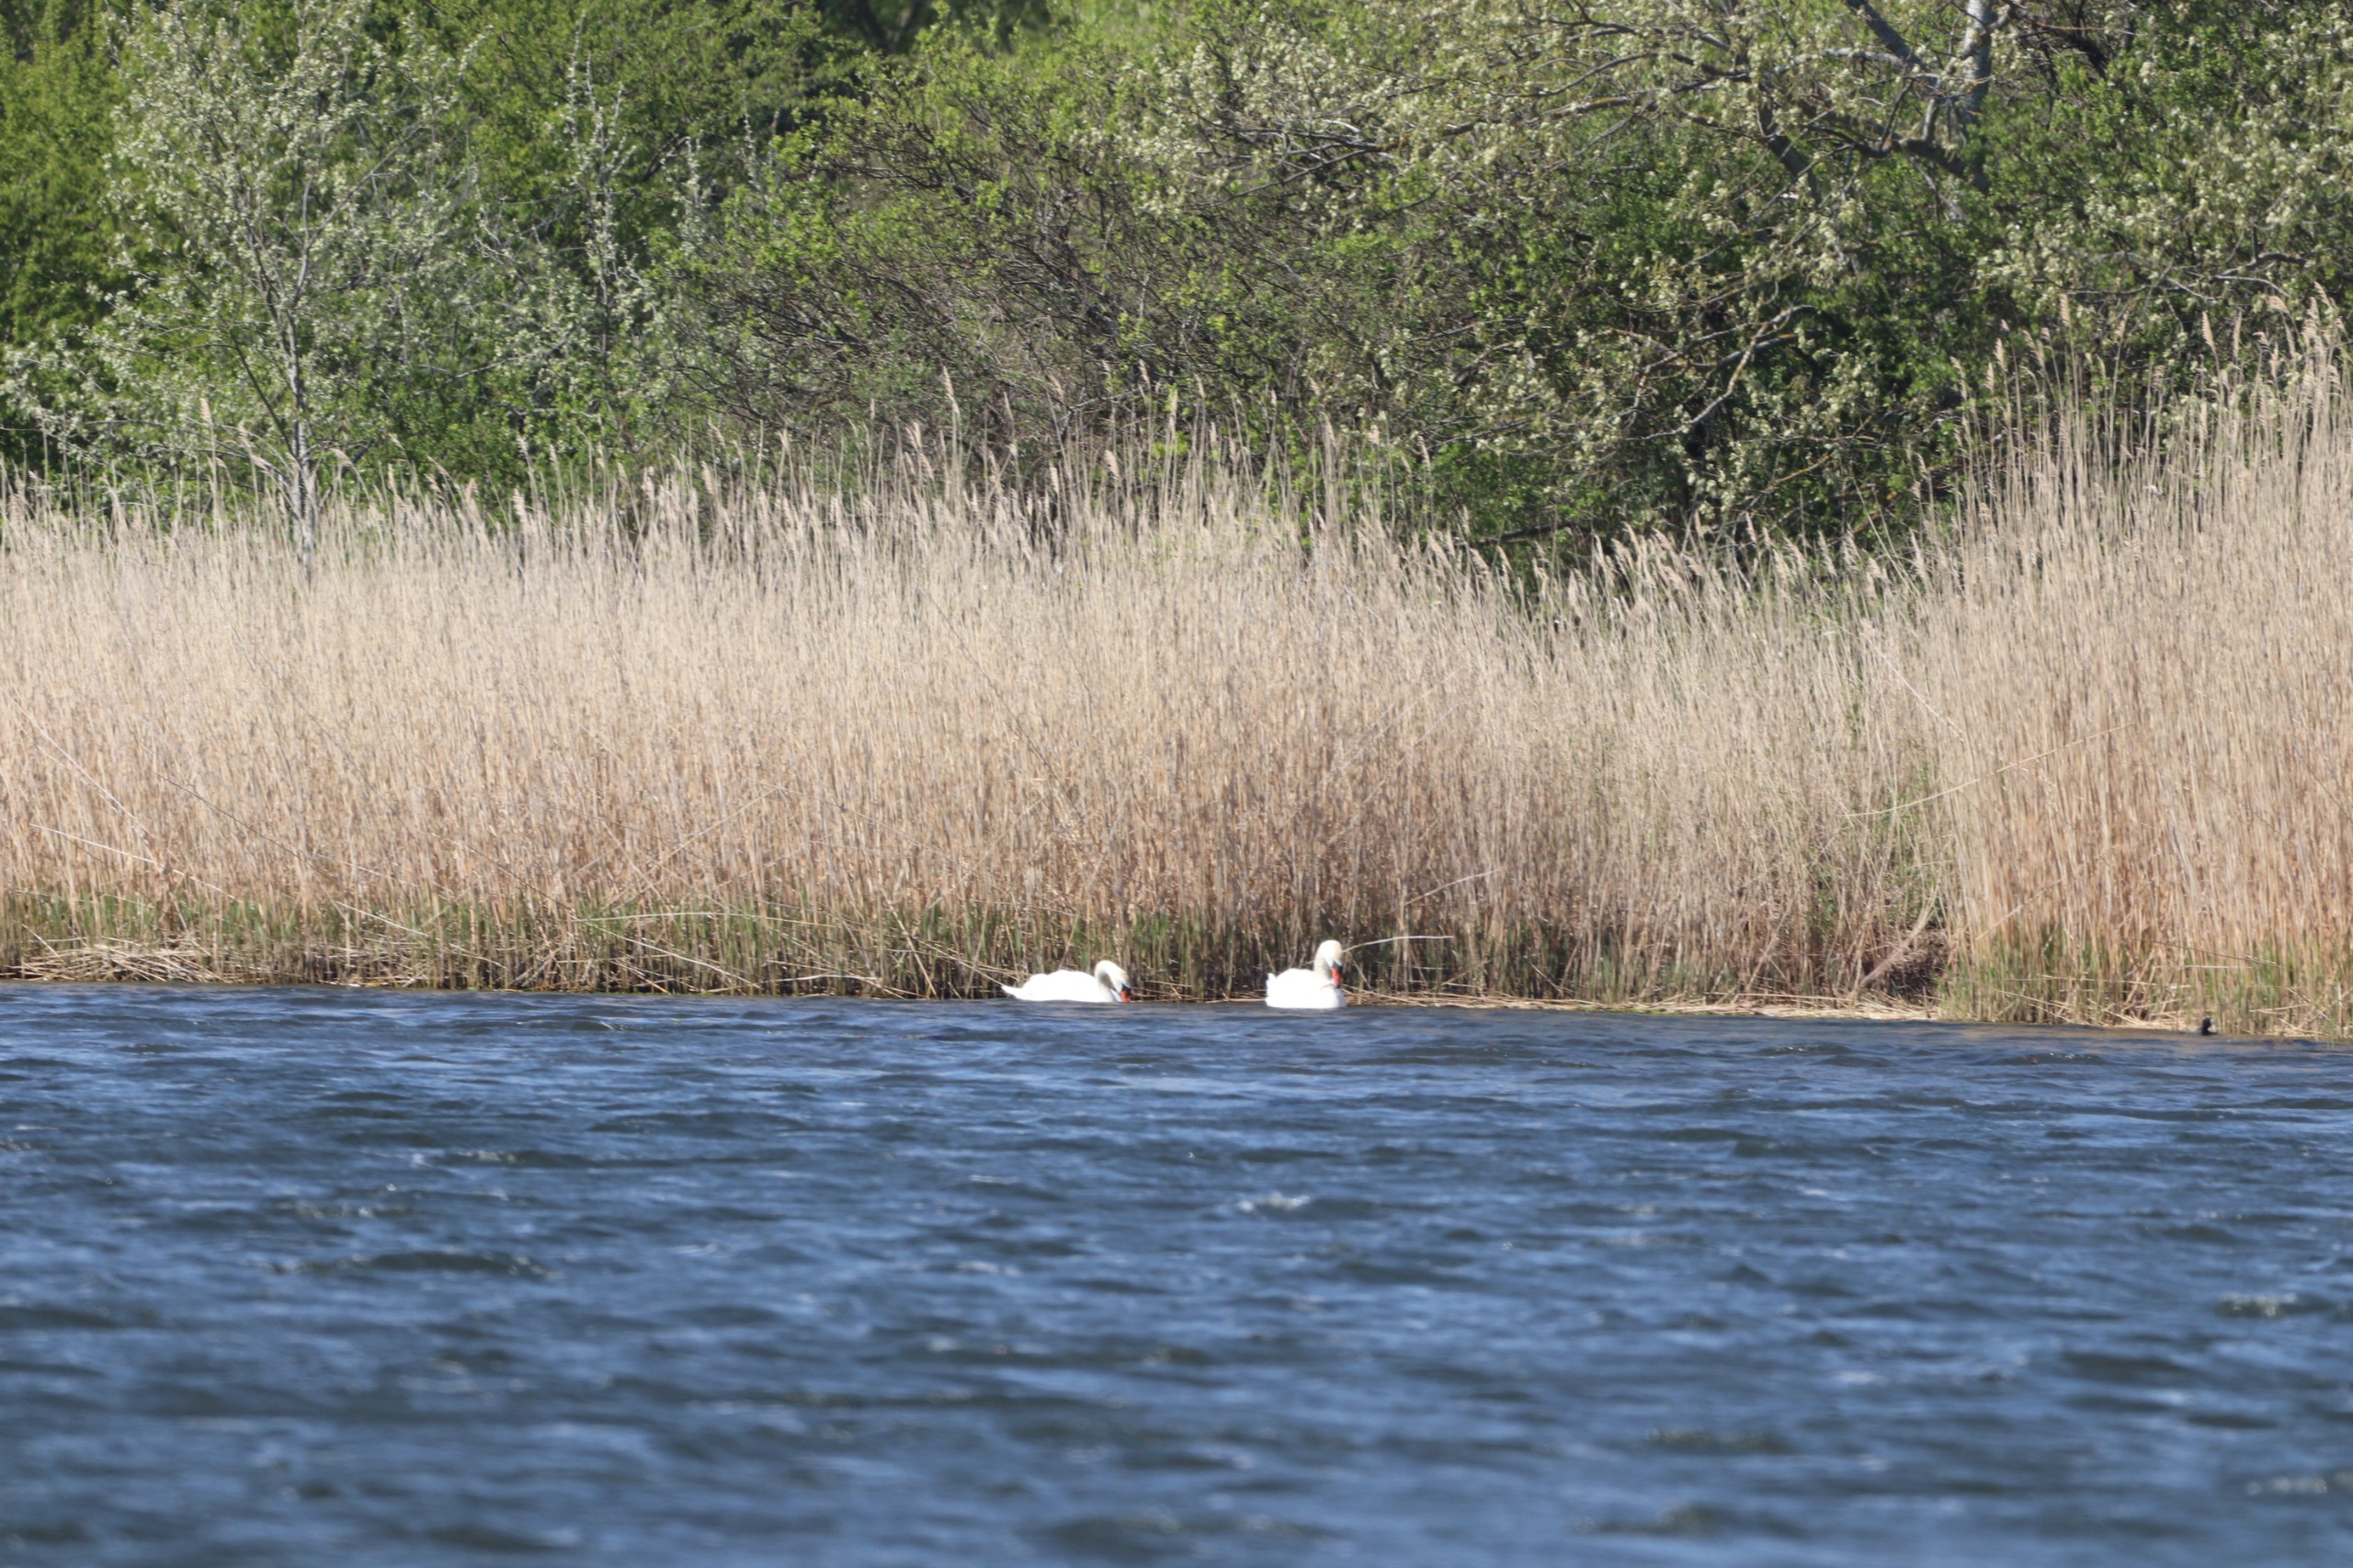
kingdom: Animalia
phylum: Chordata
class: Aves
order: Anseriformes
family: Anatidae
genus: Cygnus
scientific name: Cygnus olor
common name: Knopsvane
